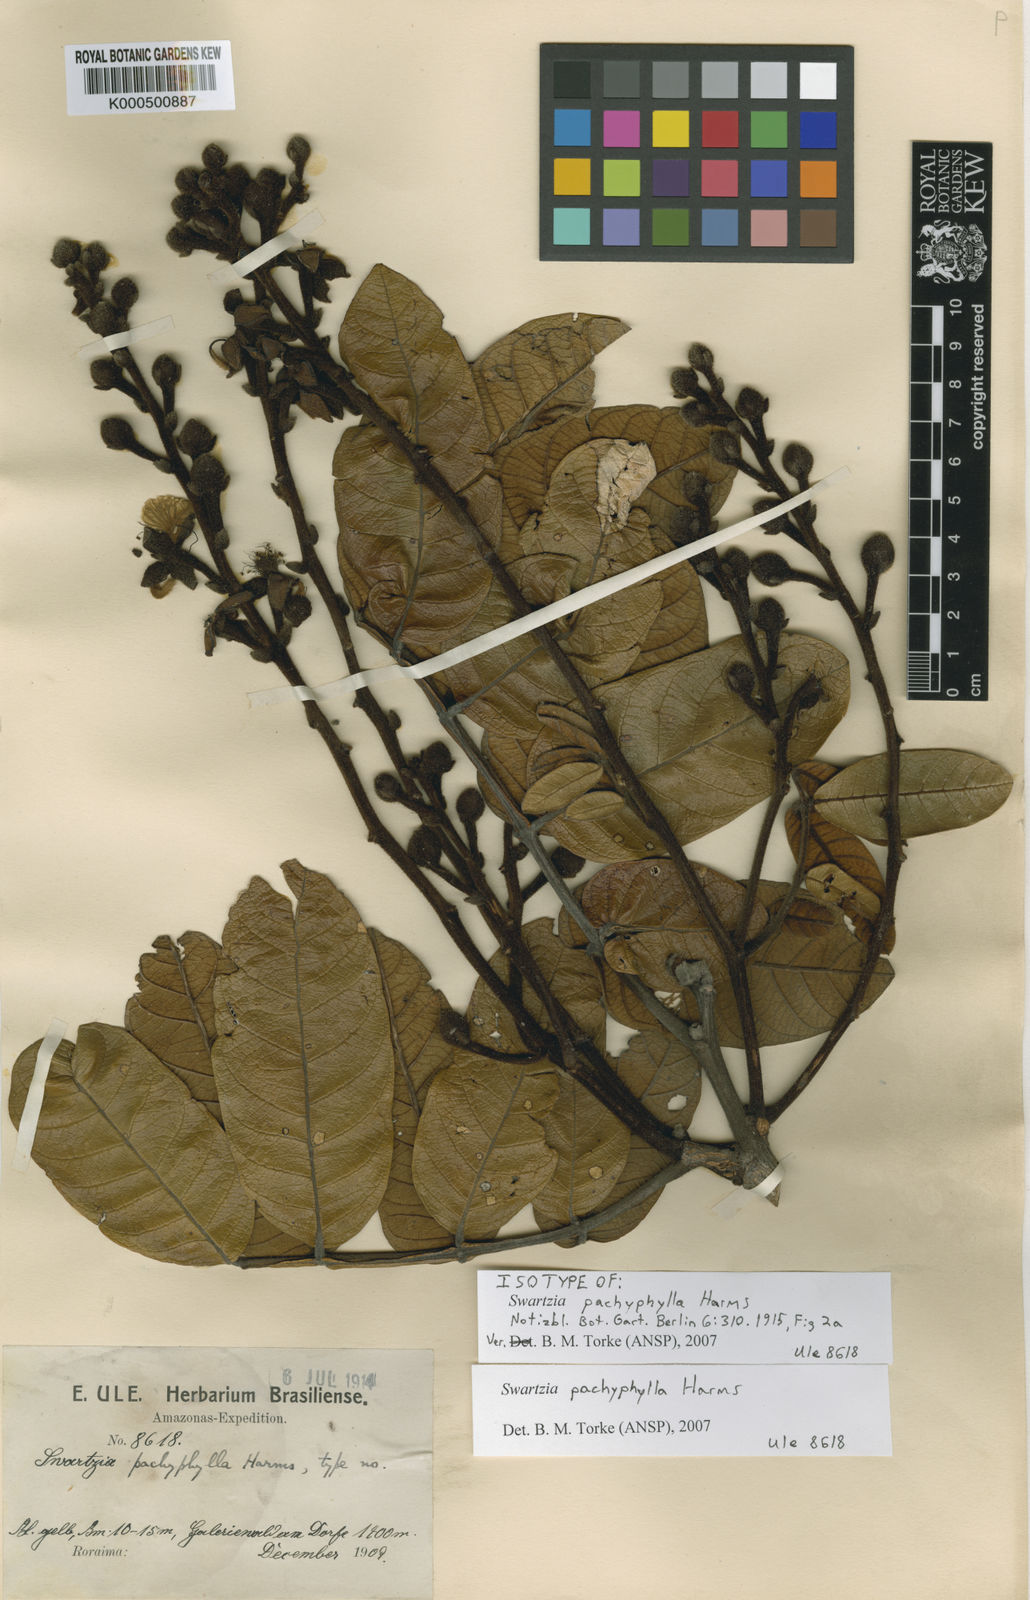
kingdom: Plantae
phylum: Tracheophyta
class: Magnoliopsida
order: Fabales
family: Fabaceae
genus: Swartzia
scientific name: Swartzia pachyphylla
